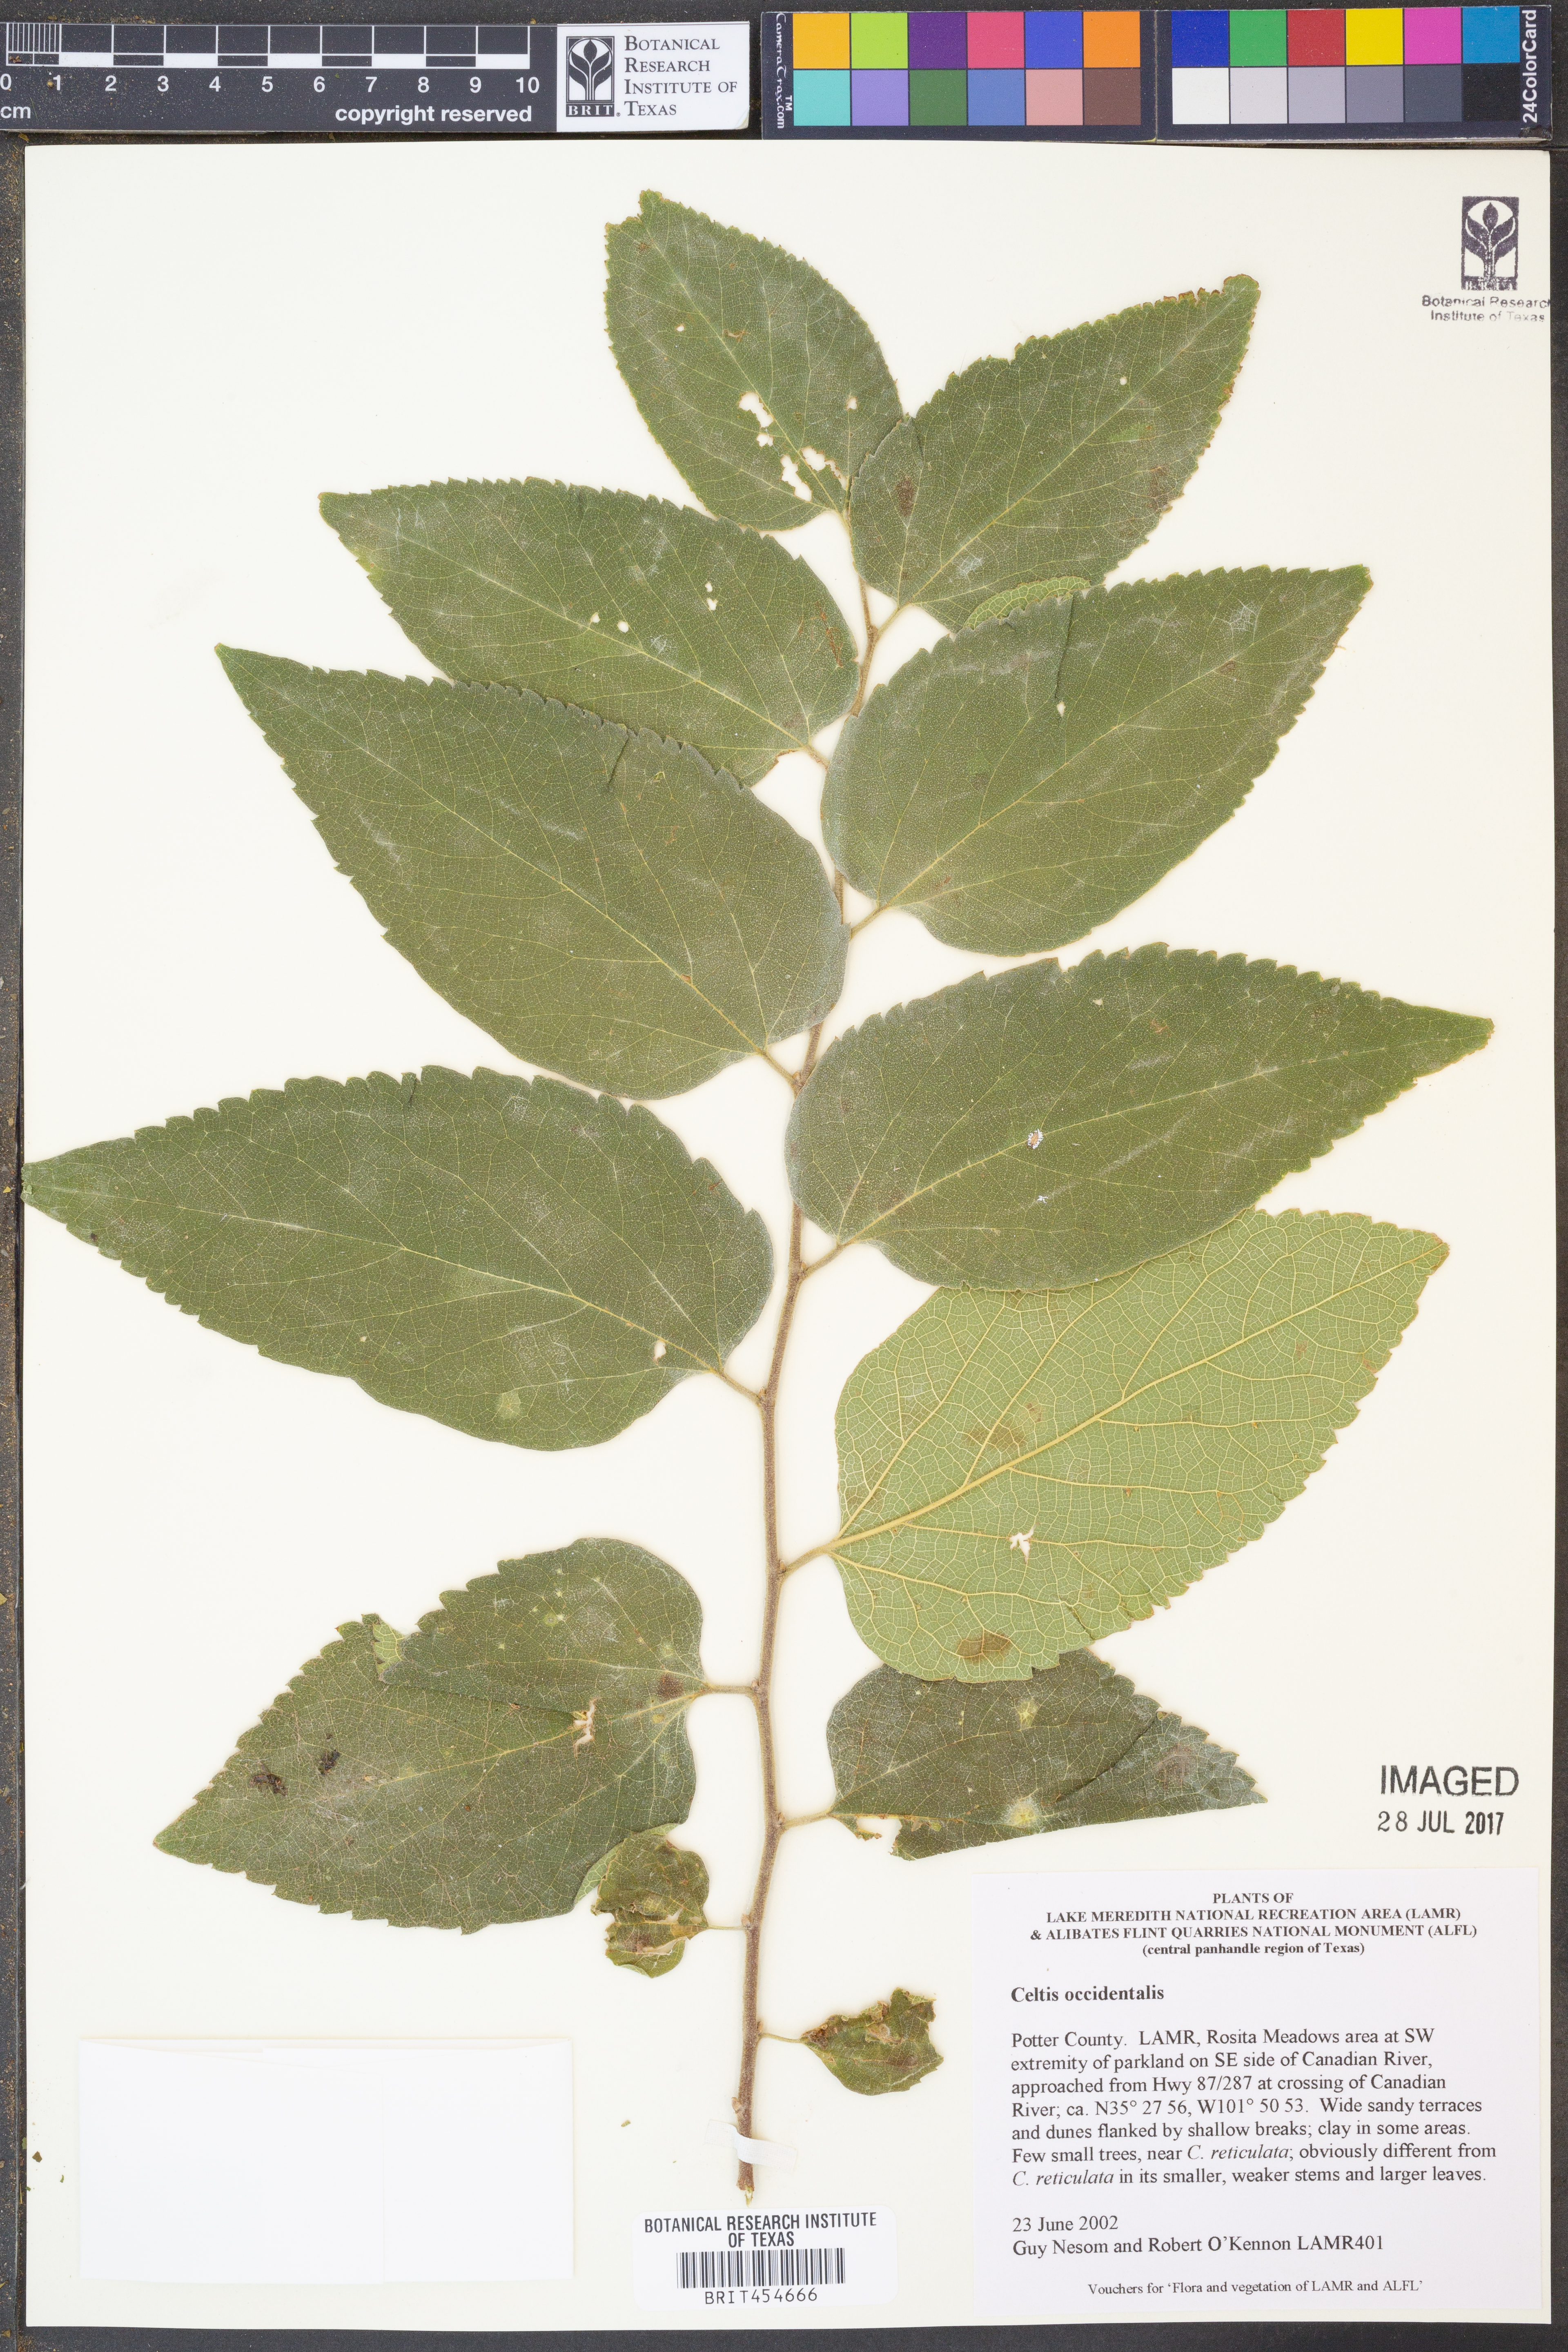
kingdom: Plantae
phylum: Tracheophyta
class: Magnoliopsida
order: Rosales
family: Cannabaceae
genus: Celtis
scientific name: Celtis occidentalis
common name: Common hackberry
